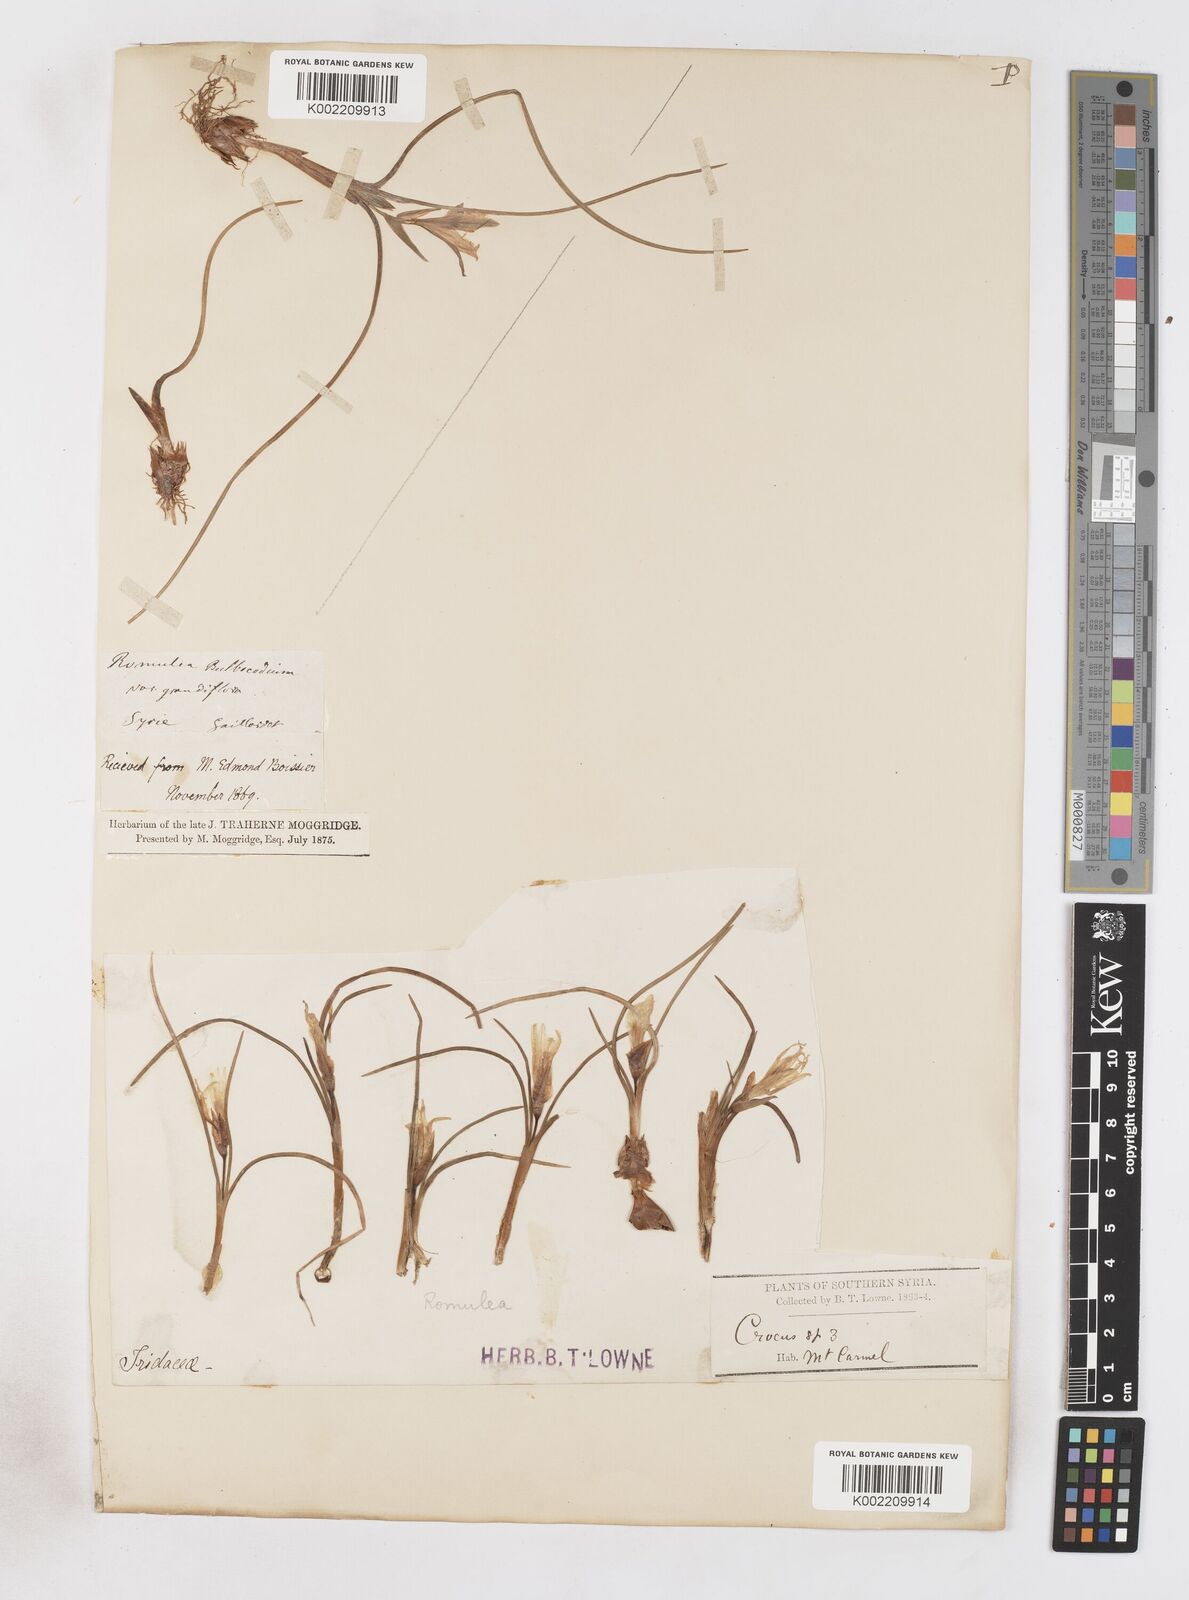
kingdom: Plantae
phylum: Tracheophyta
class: Liliopsida
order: Asparagales
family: Iridaceae
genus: Romulea
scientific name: Romulea bulbocodium
